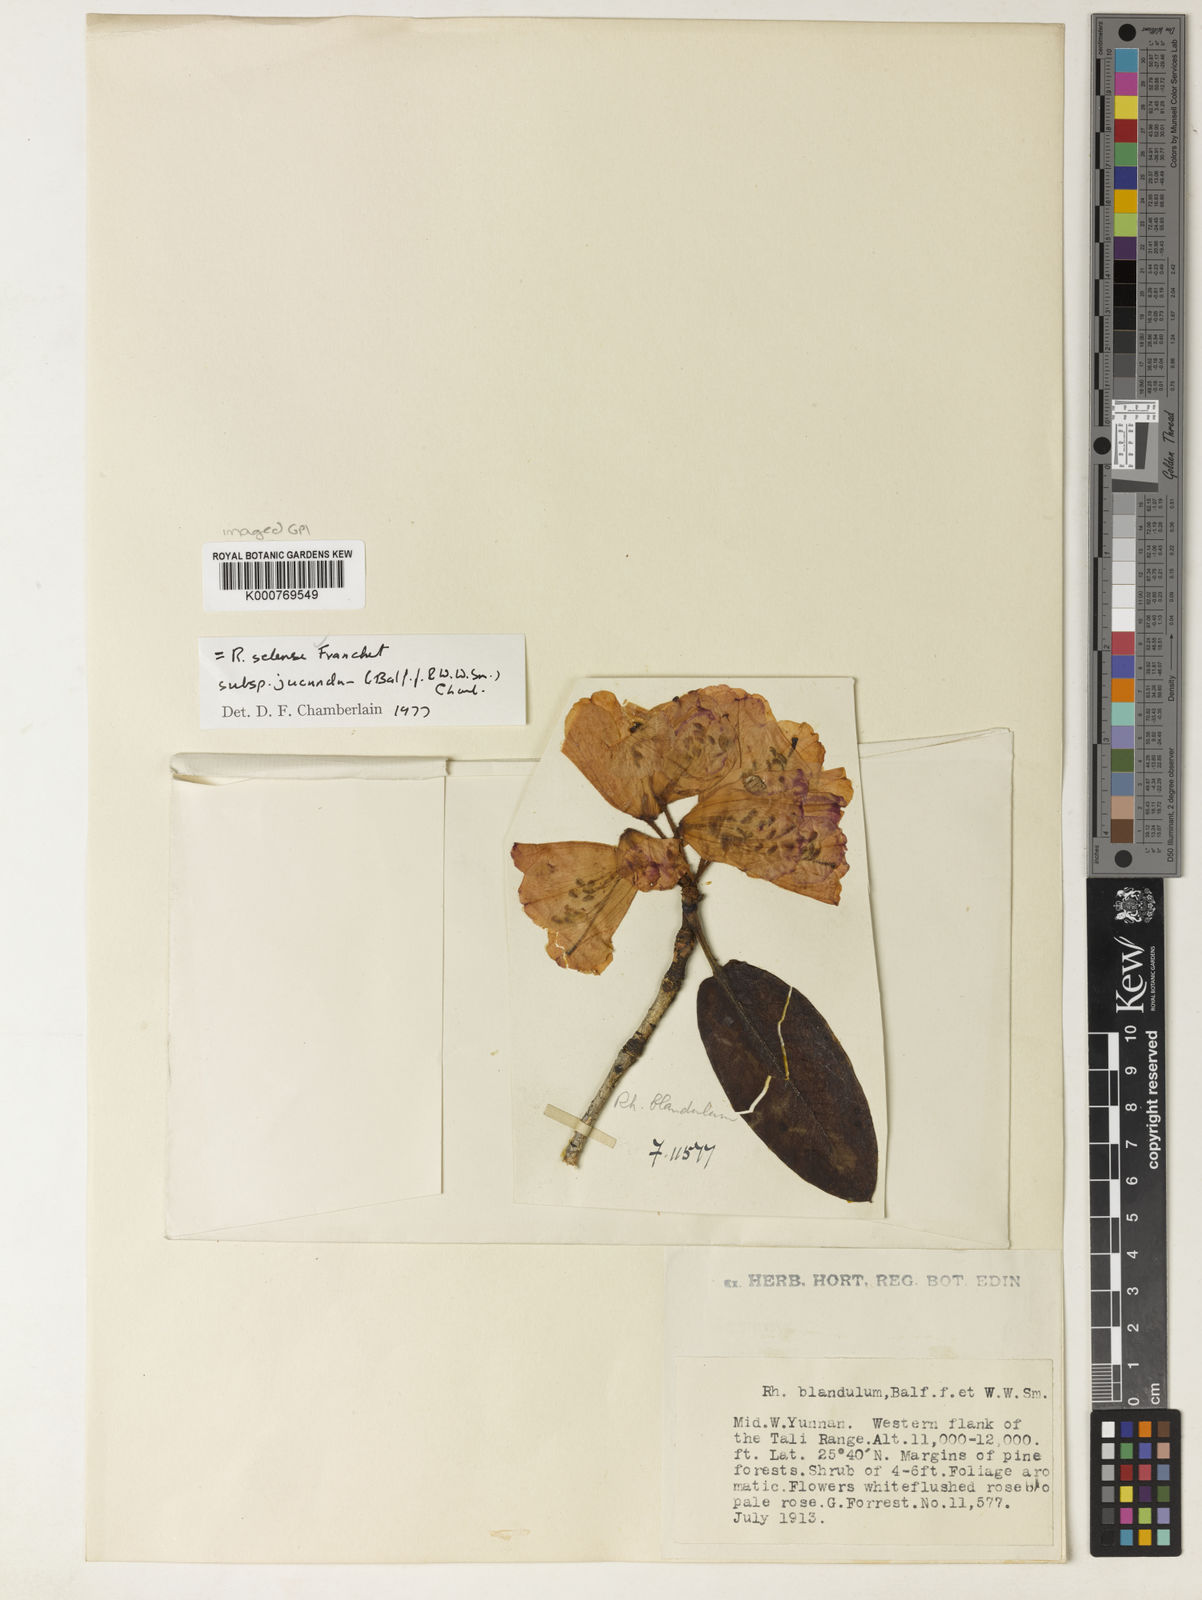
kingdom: Plantae
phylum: Tracheophyta
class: Magnoliopsida
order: Ericales
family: Ericaceae
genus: Rhododendron
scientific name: Rhododendron selense
